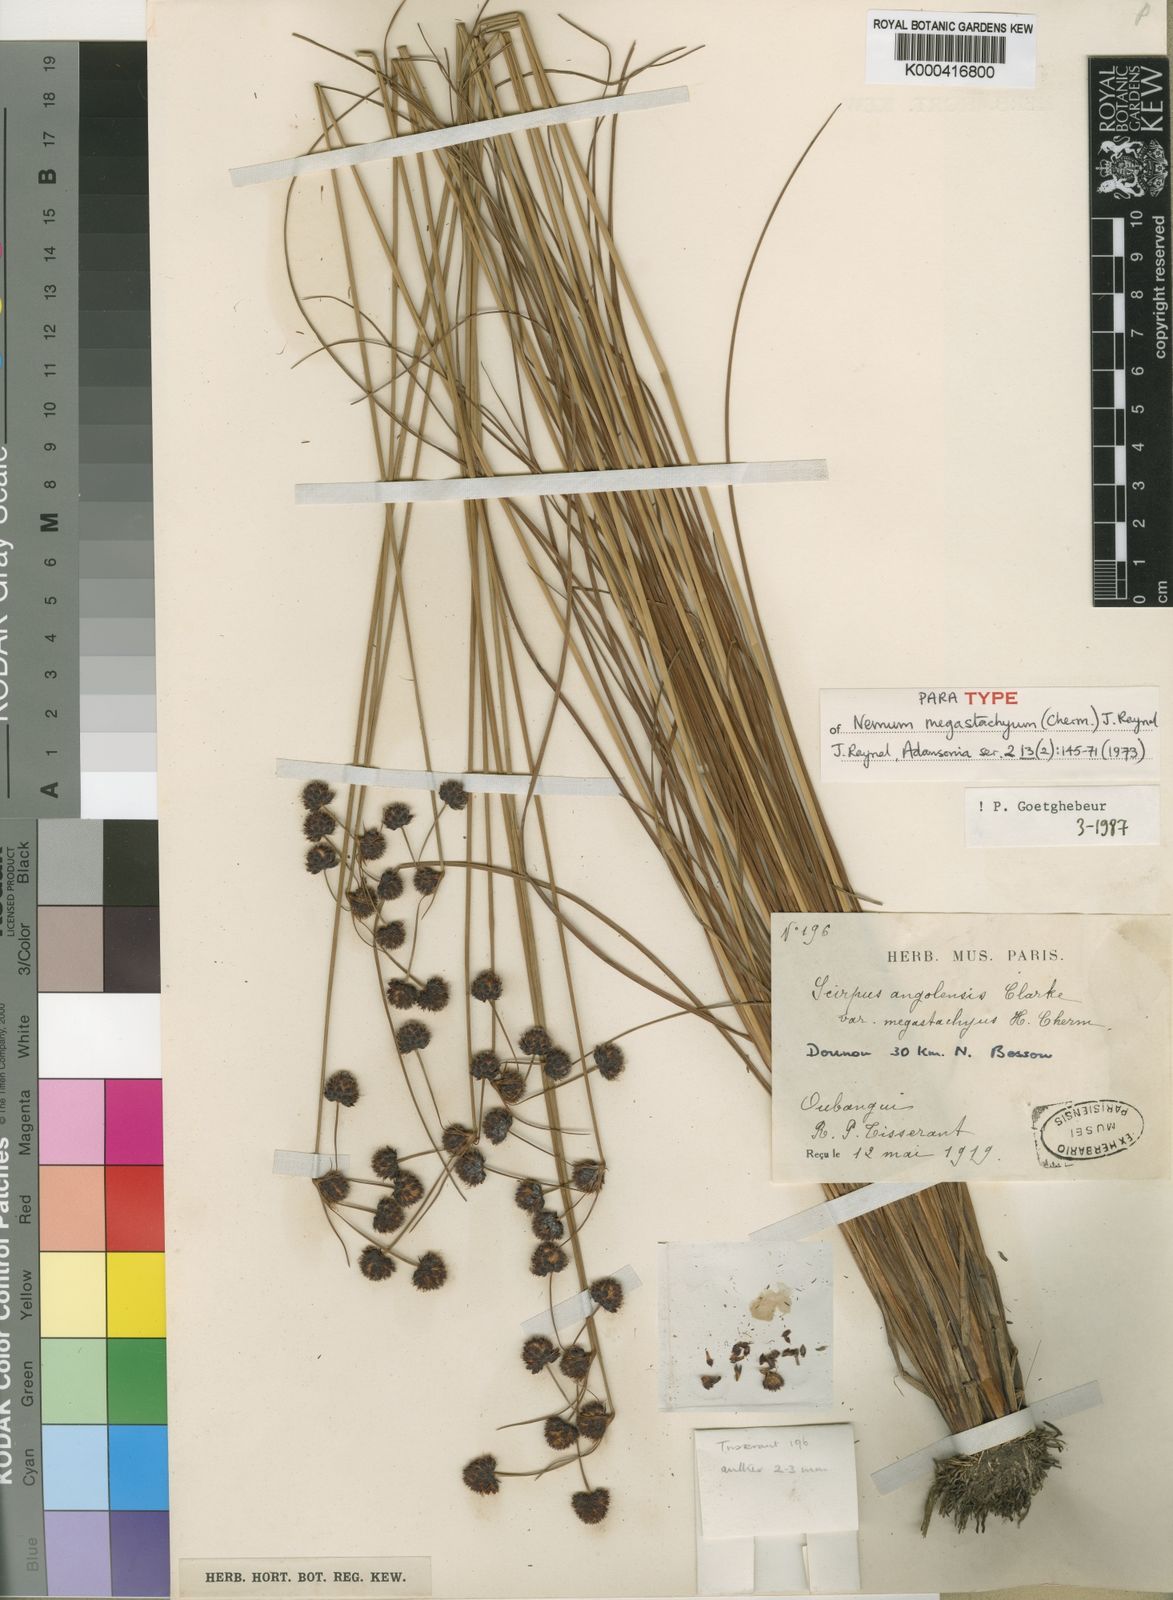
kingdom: Plantae
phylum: Tracheophyta
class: Liliopsida
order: Poales
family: Cyperaceae
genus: Bulbostylis
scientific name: Bulbostylis brunneoacuminata
